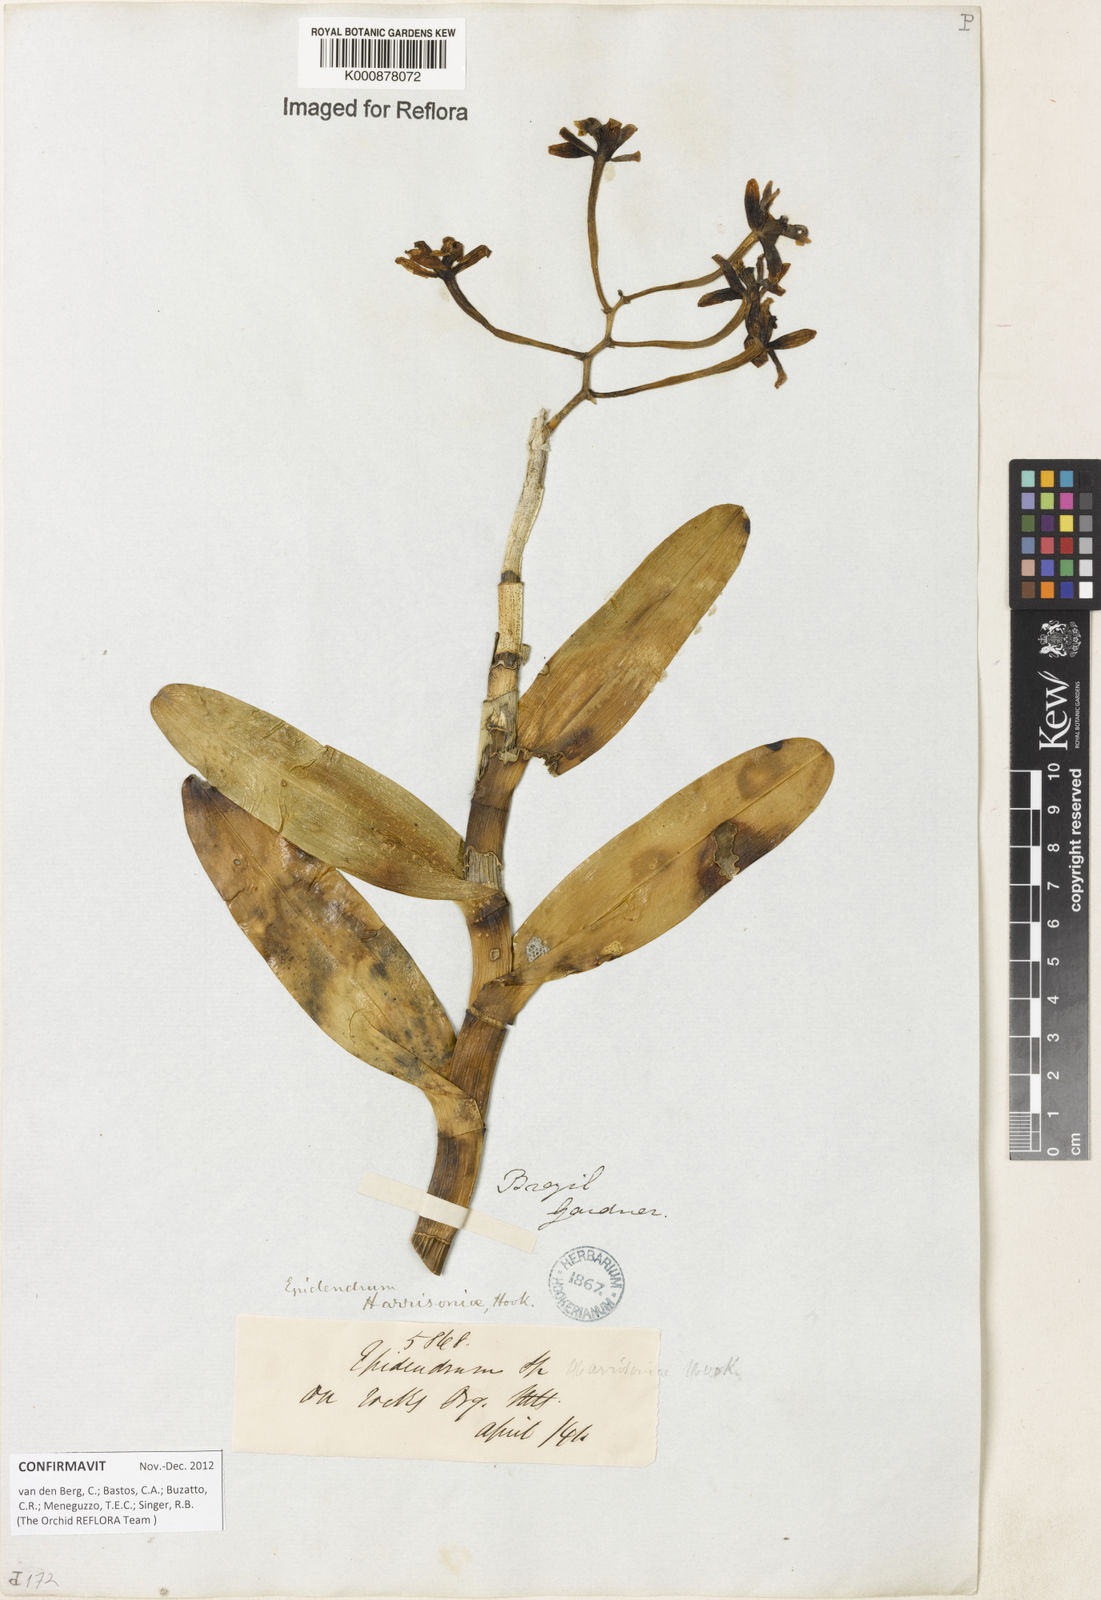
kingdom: Plantae
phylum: Tracheophyta
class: Liliopsida
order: Asparagales
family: Orchidaceae
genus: Epidendrum
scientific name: Epidendrum harrisoniae
